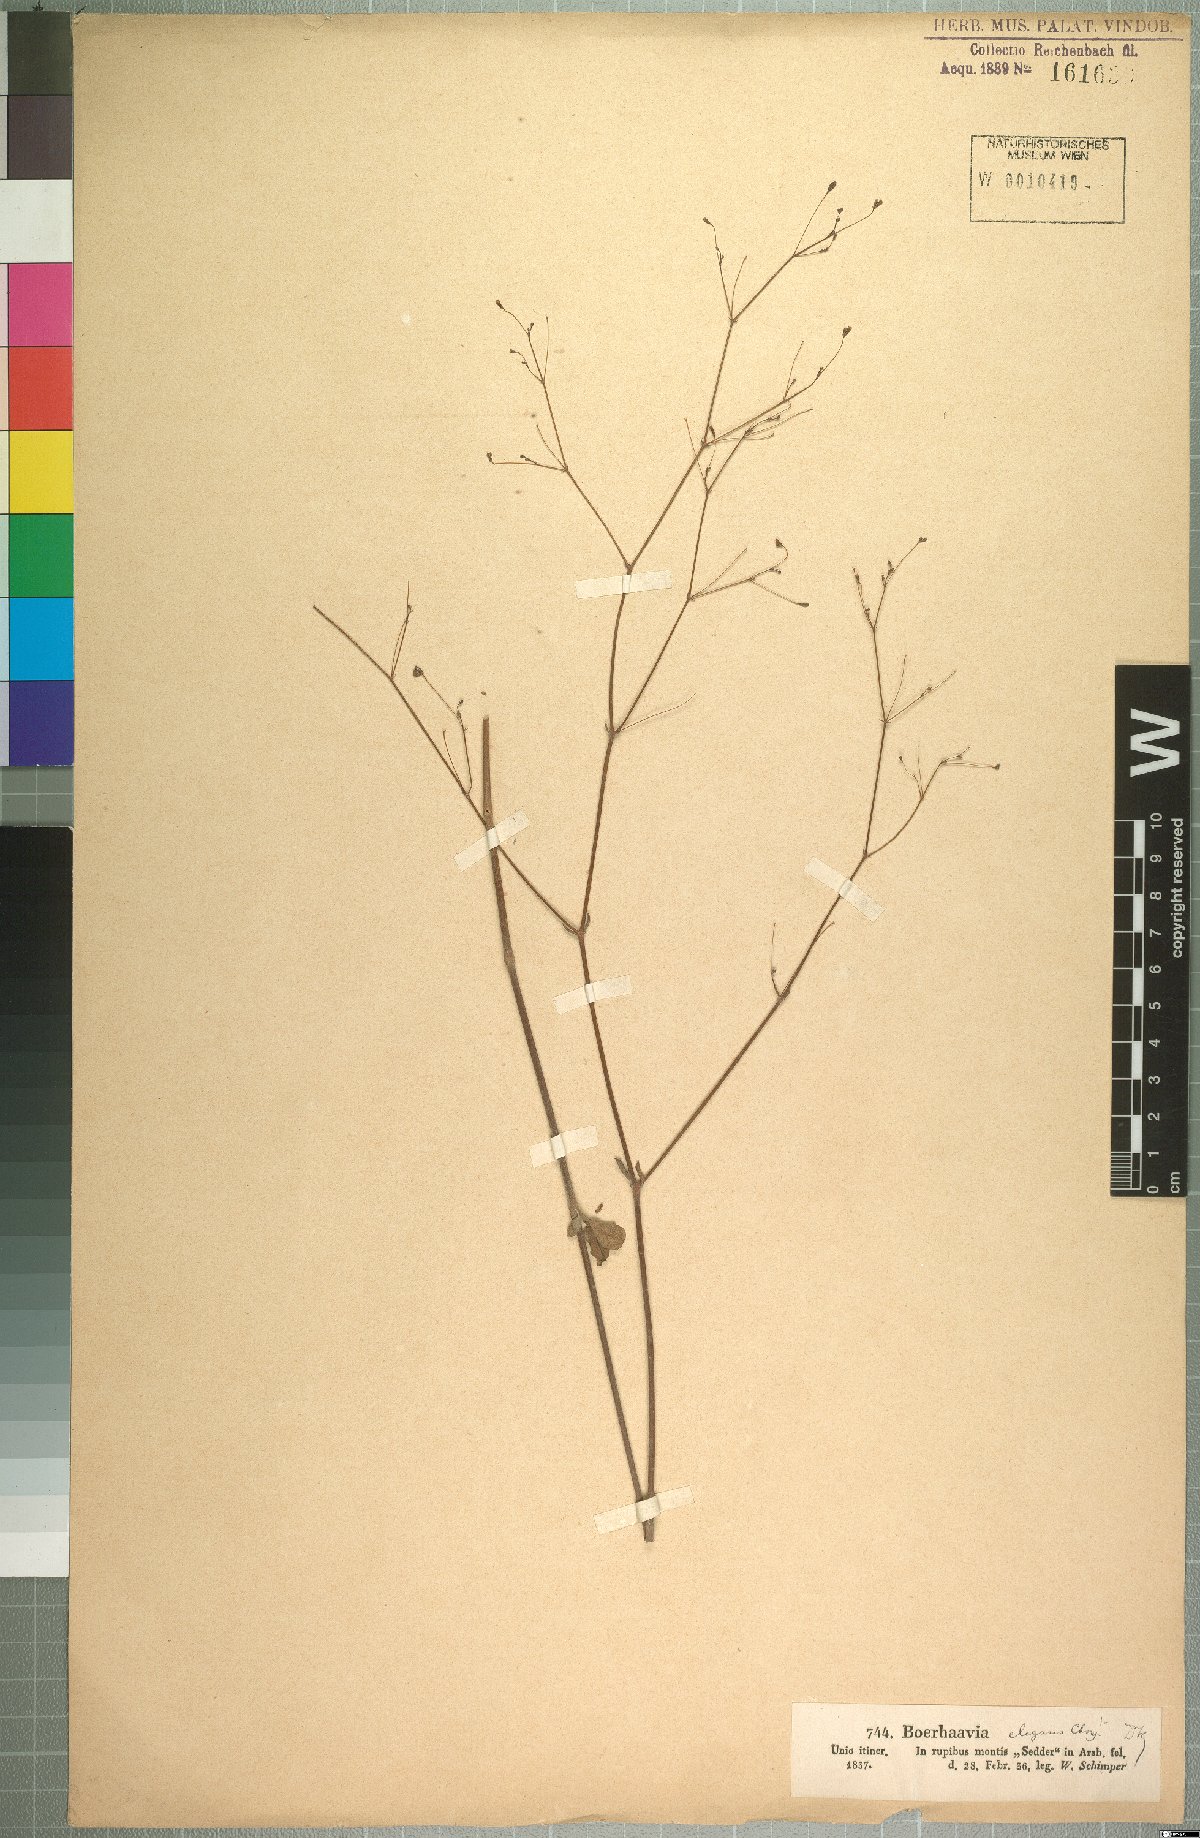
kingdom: Plantae
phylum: Tracheophyta
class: Magnoliopsida
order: Caryophyllales
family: Nyctaginaceae
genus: Boerhavia
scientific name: Boerhavia elegans
